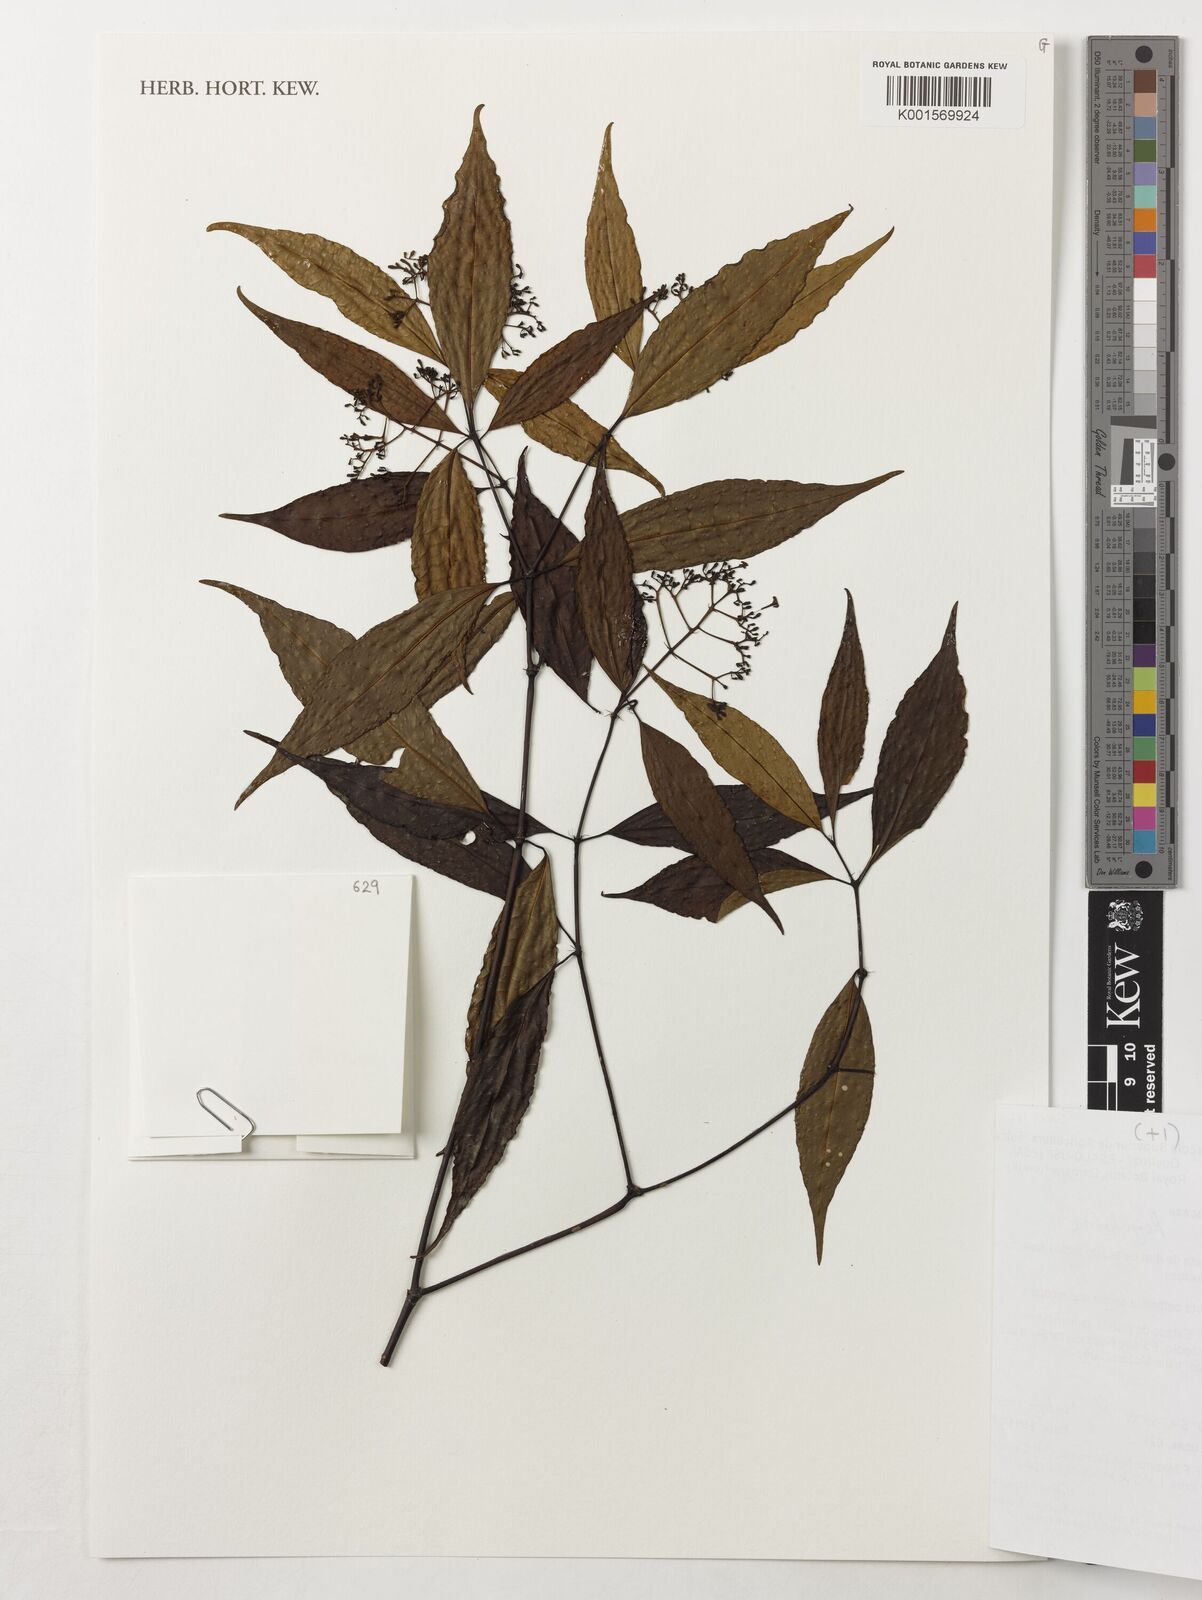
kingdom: Plantae
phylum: Tracheophyta
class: Magnoliopsida
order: Gentianales
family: Rubiaceae
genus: Psychotria
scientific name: Psychotria
